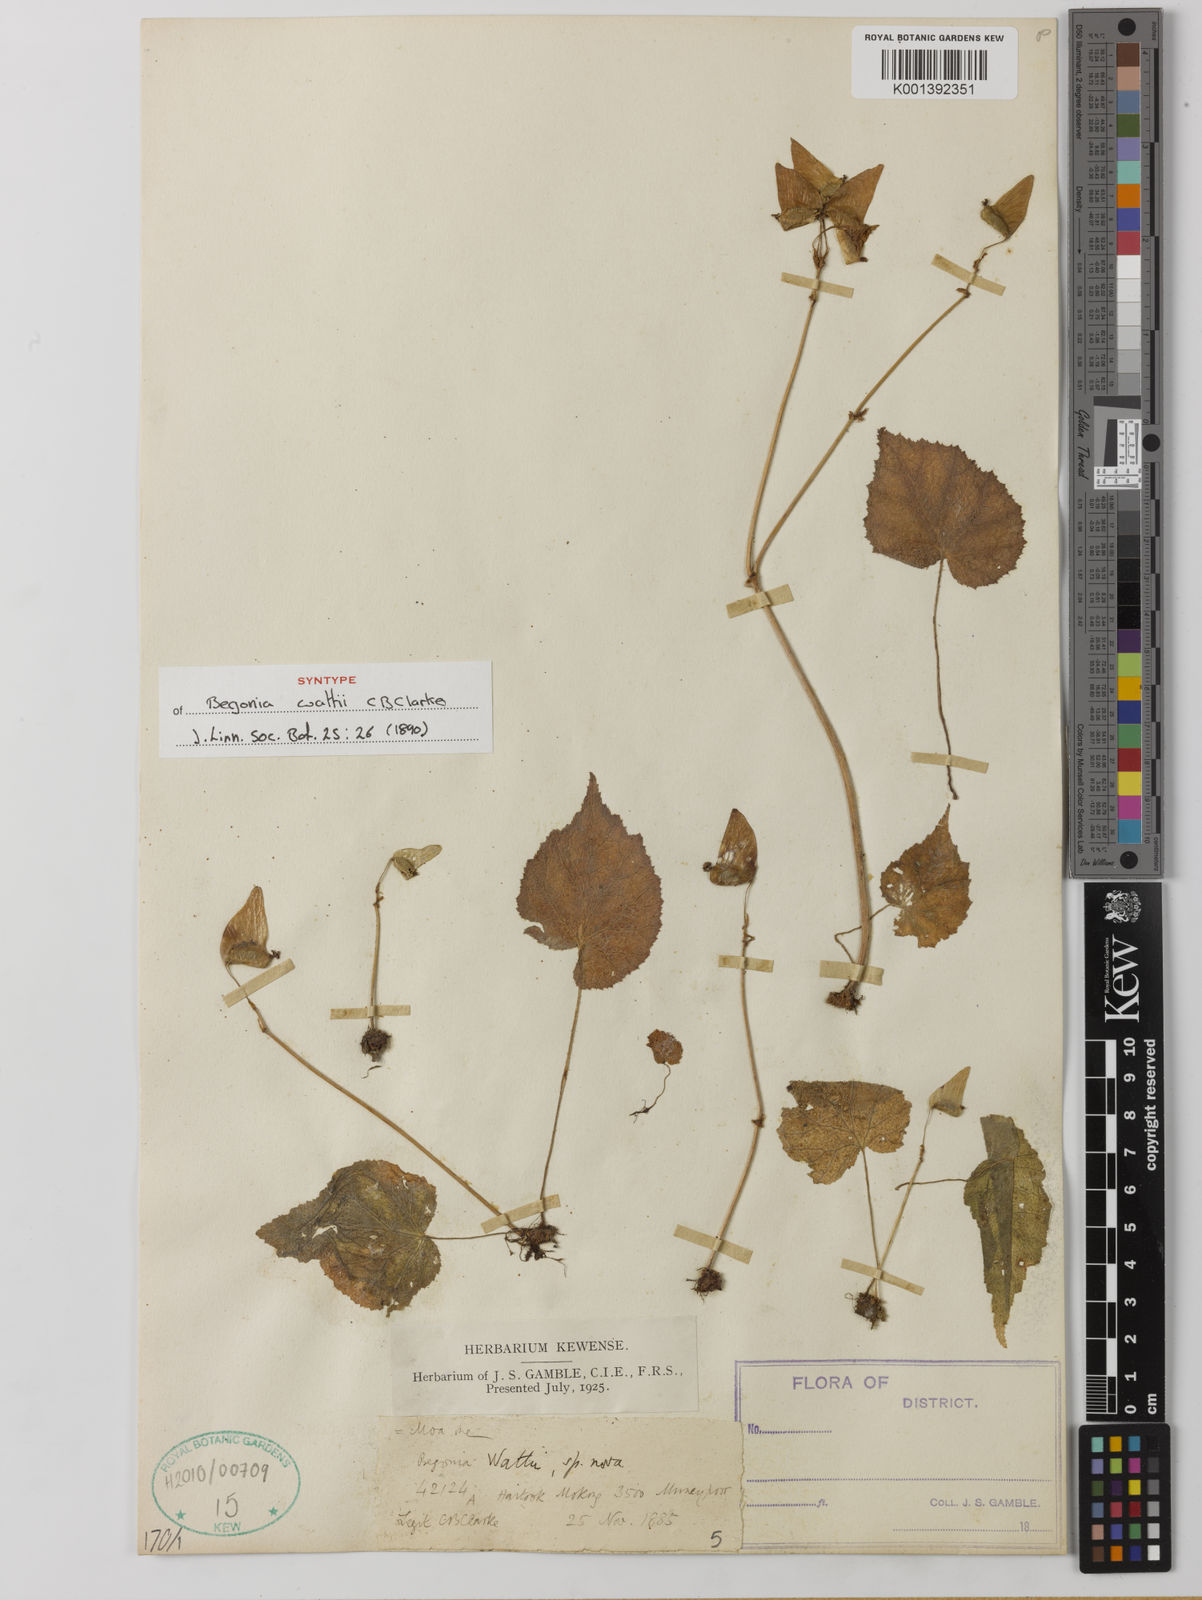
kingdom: Plantae
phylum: Tracheophyta
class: Magnoliopsida
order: Cucurbitales
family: Begoniaceae
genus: Begonia
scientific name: Begonia wattii
